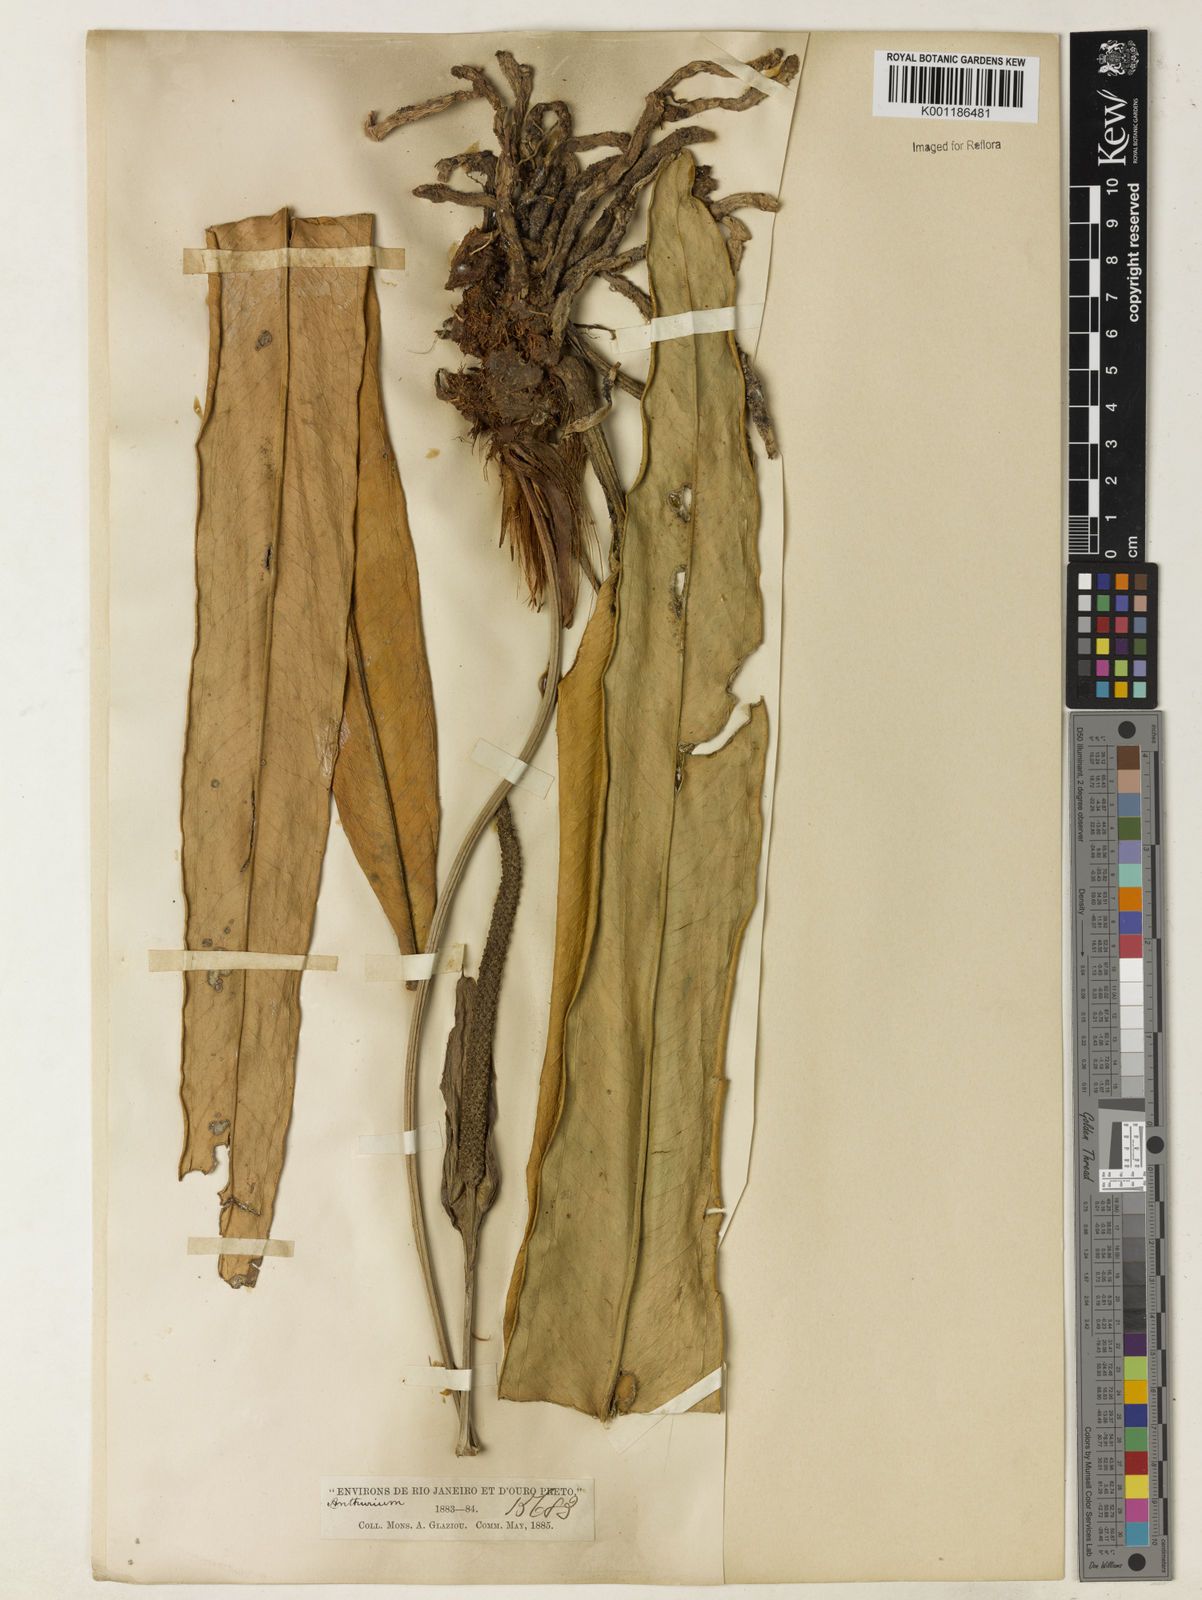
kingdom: Plantae
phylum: Tracheophyta
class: Liliopsida
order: Alismatales
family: Araceae
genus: Anthurium
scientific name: Anthurium galeottii
